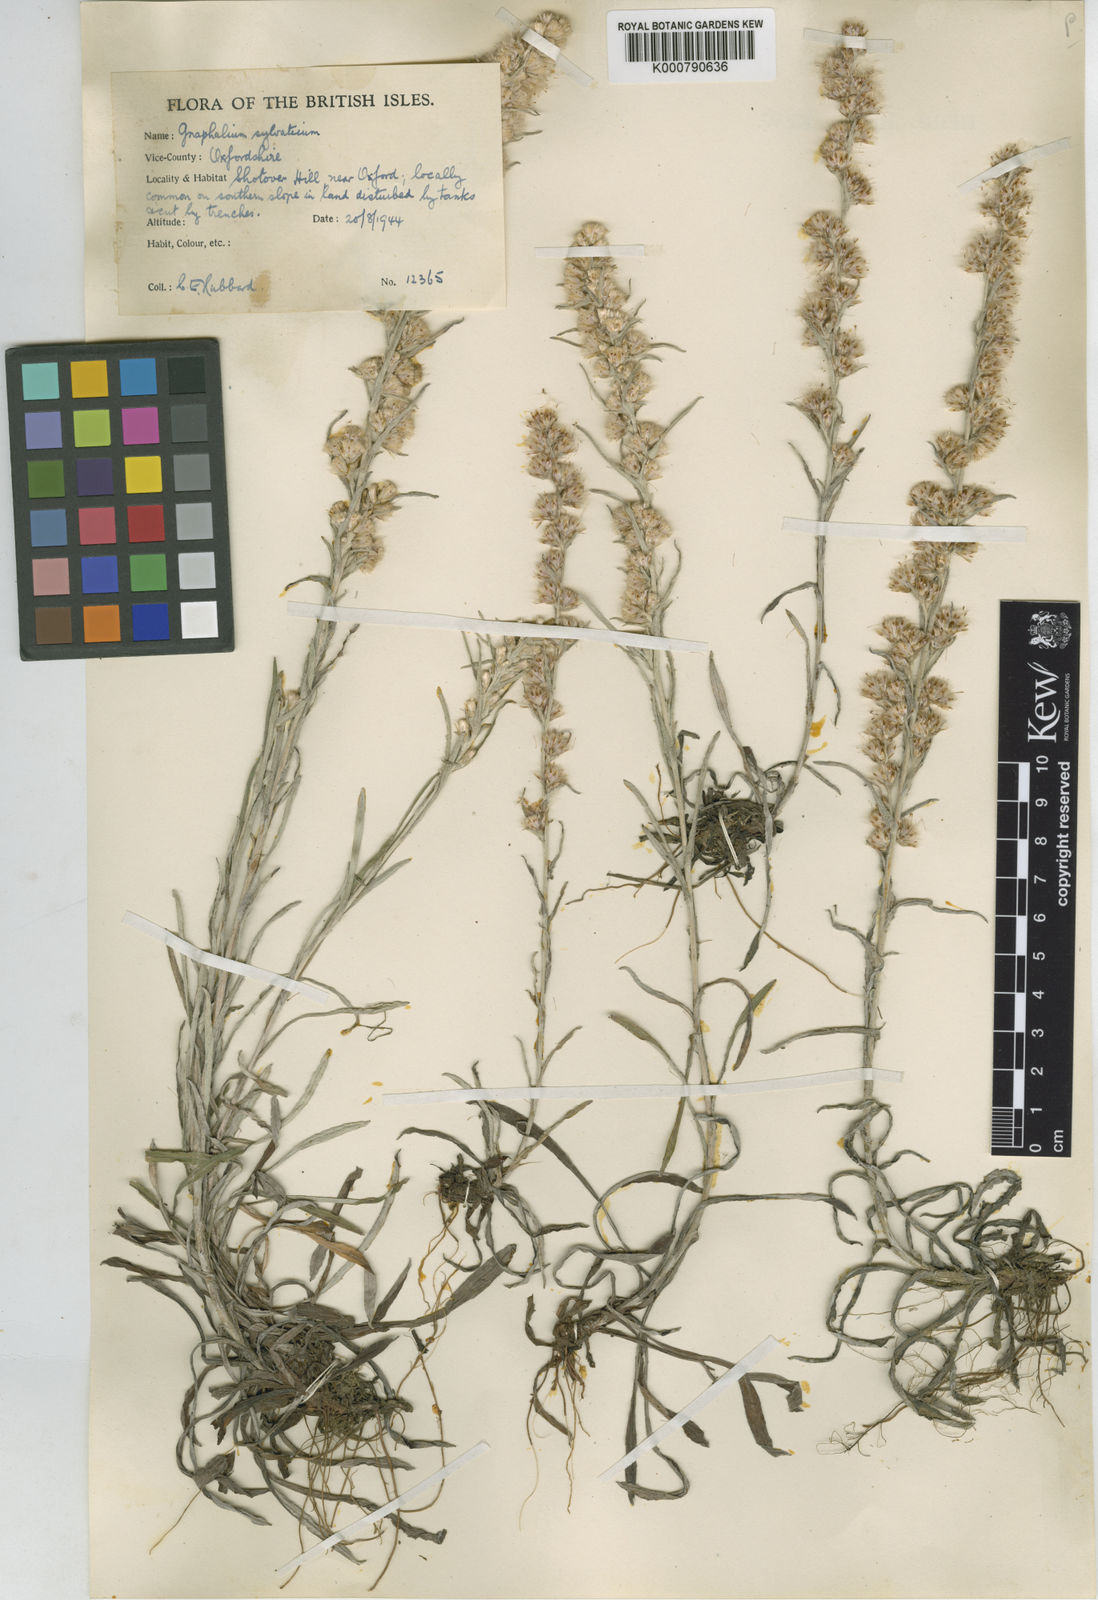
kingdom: Plantae
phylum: Tracheophyta
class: Magnoliopsida
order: Asterales
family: Asteraceae
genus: Omalotheca
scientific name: Omalotheca sylvatica
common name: Heath cudweed
